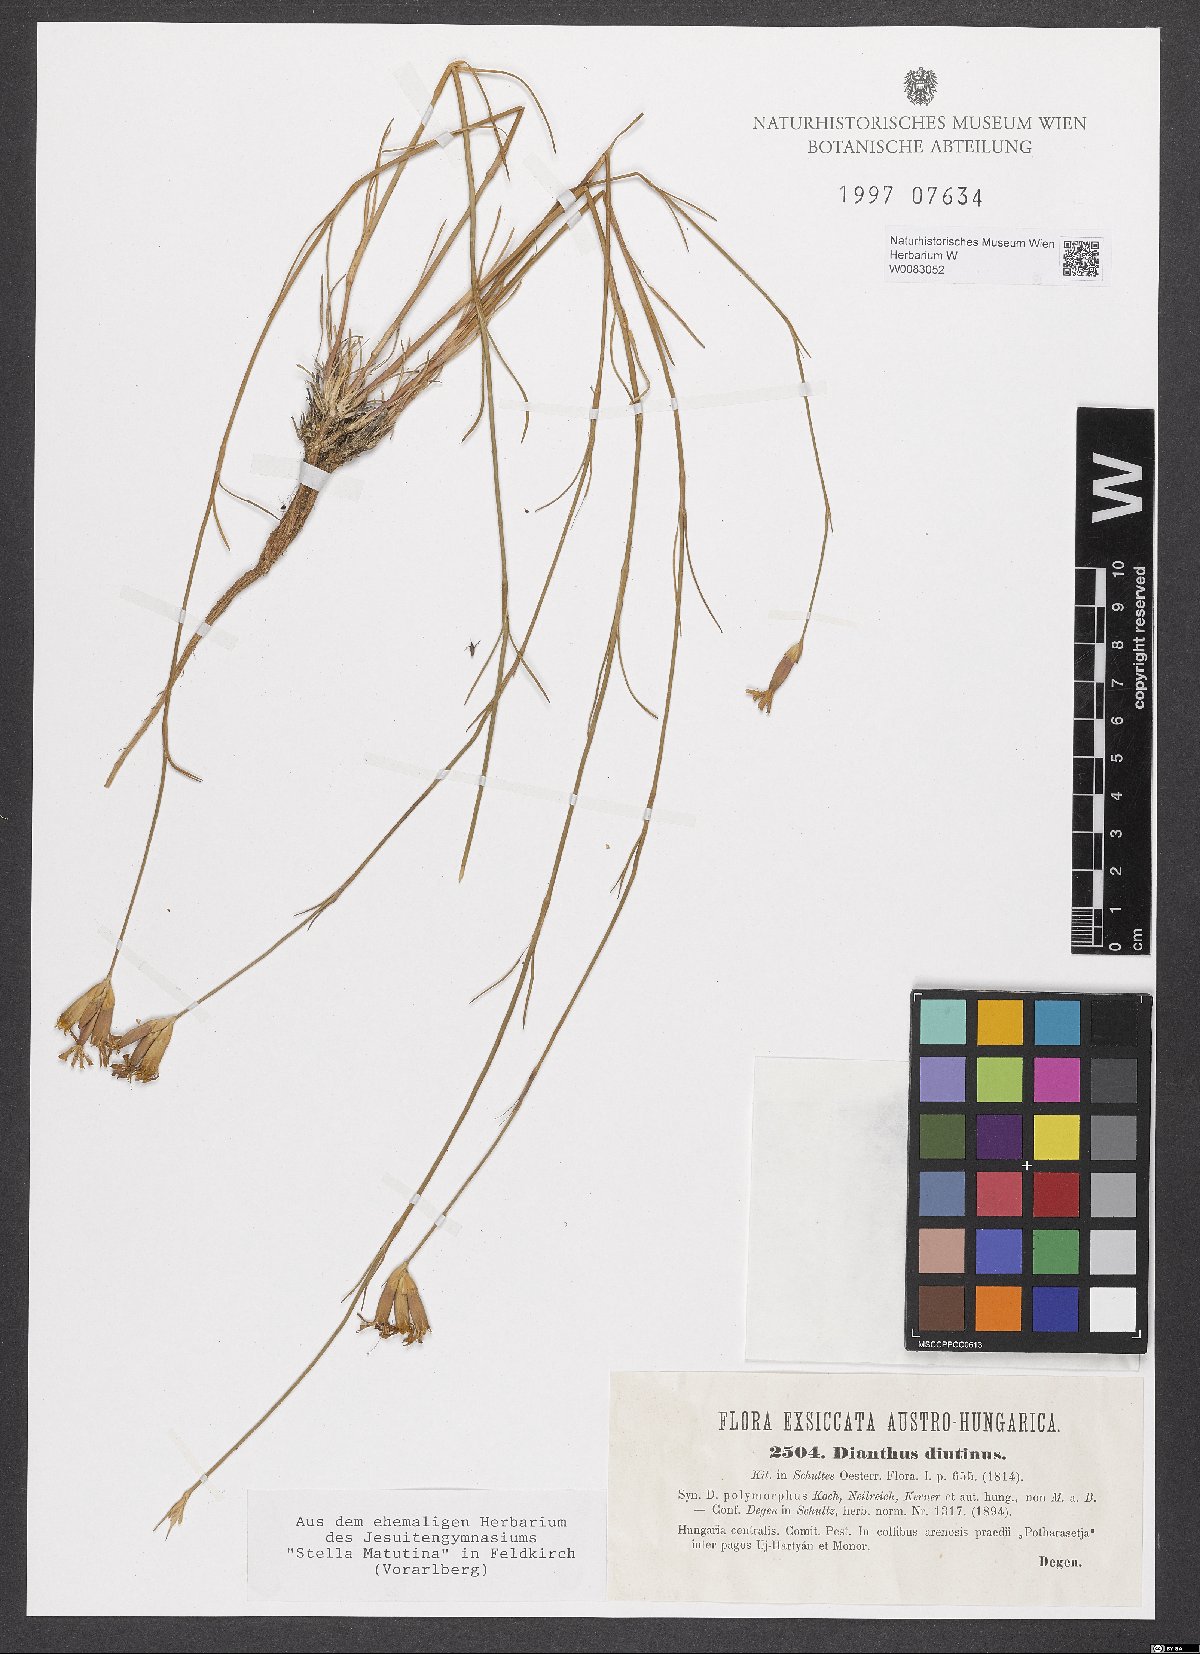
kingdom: Plantae
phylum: Tracheophyta
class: Magnoliopsida
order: Caryophyllales
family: Caryophyllaceae
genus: Dianthus
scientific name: Dianthus polymorphus
